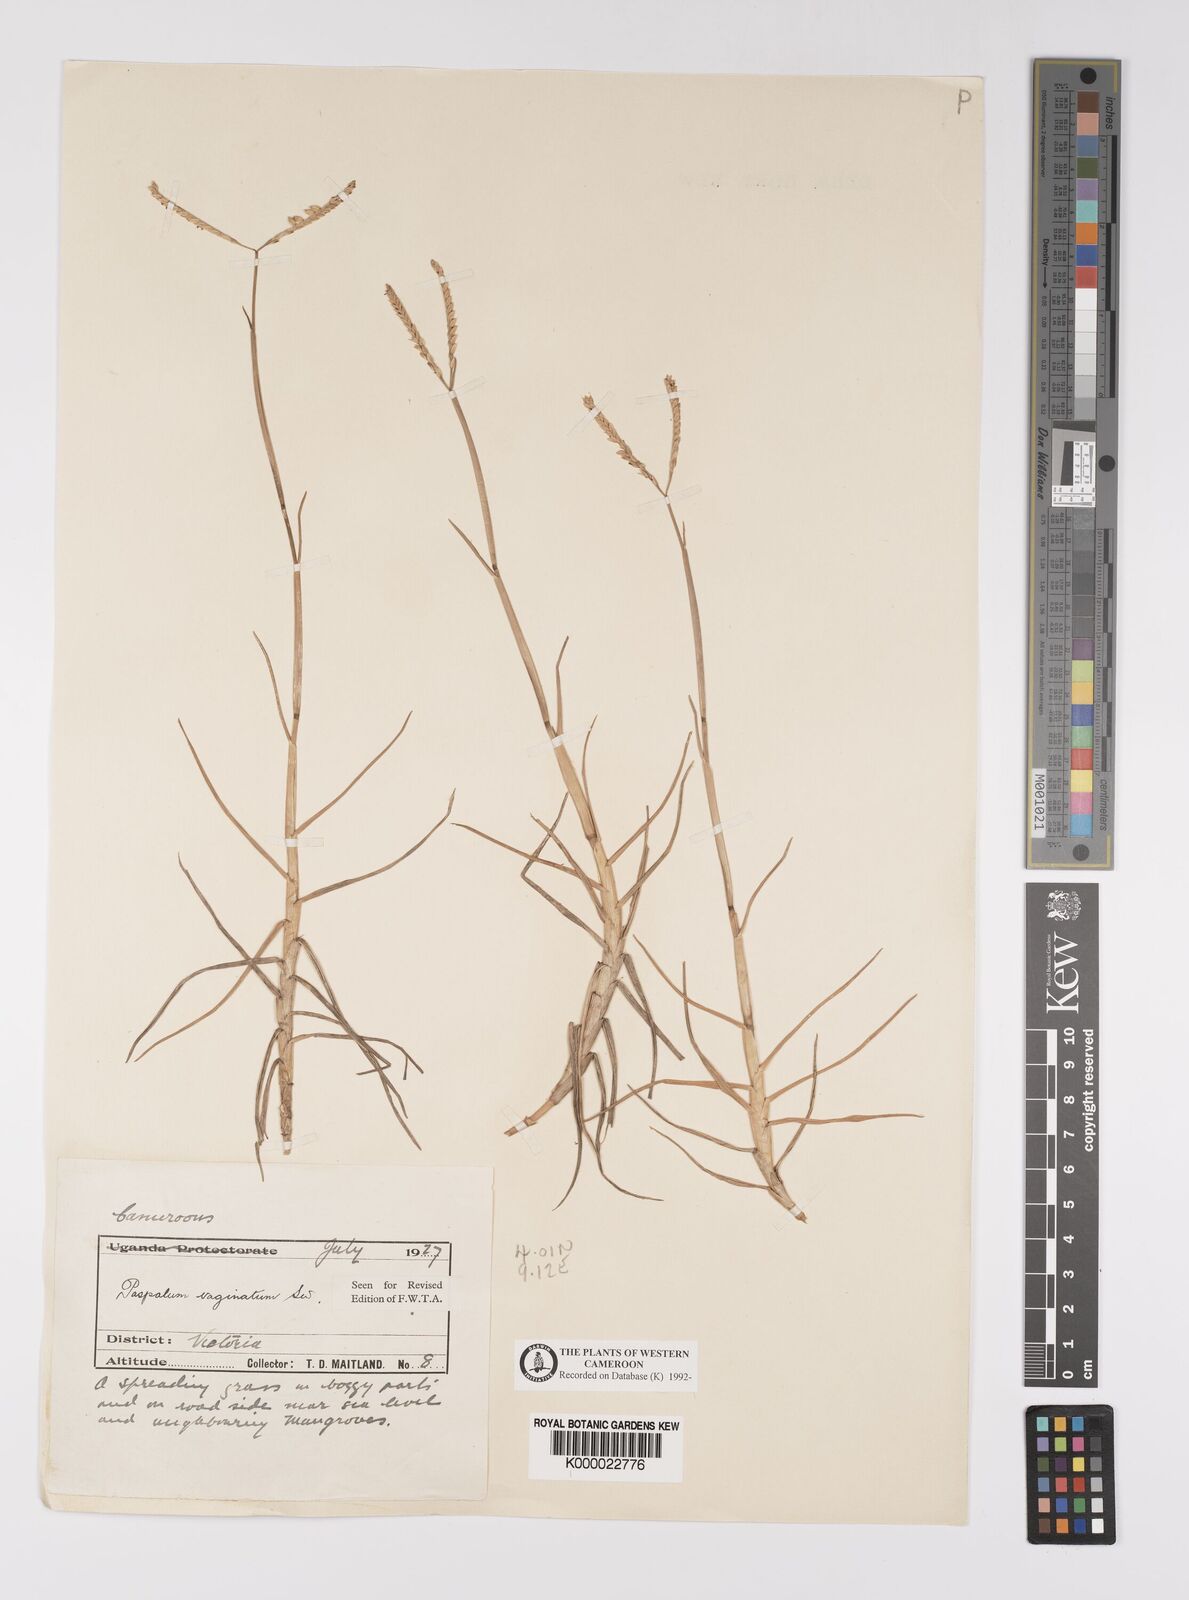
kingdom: Plantae
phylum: Tracheophyta
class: Liliopsida
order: Poales
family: Poaceae
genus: Paspalum
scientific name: Paspalum vaginatum
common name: Seashore paspalum
